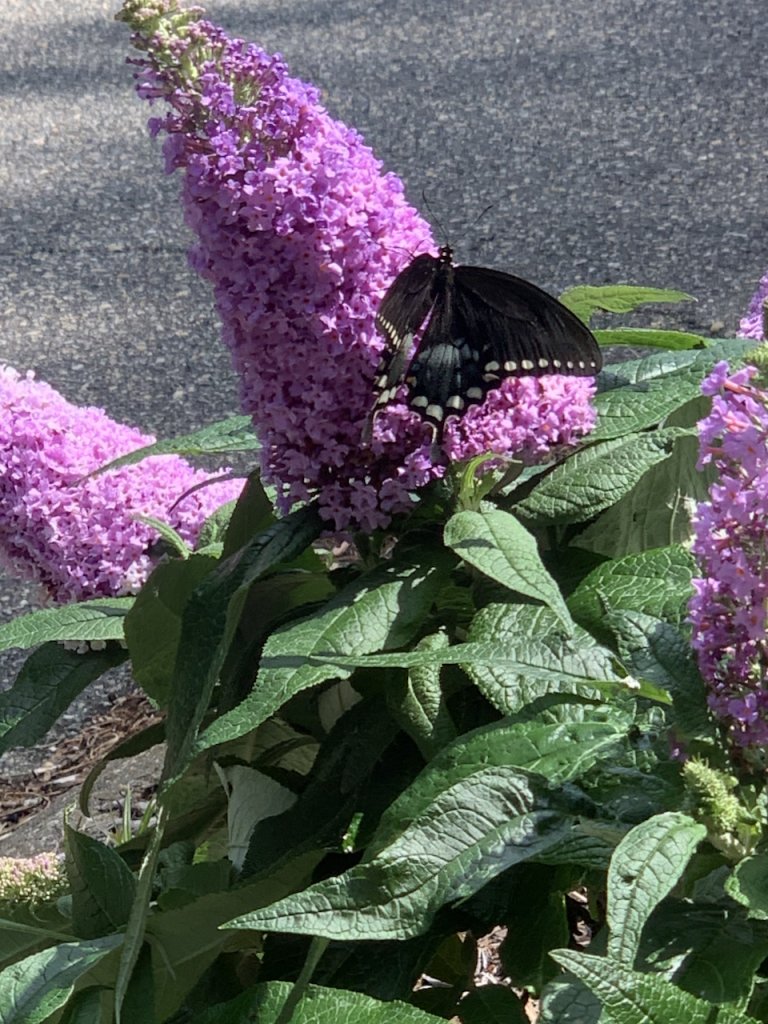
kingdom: Animalia
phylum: Arthropoda
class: Insecta
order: Lepidoptera
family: Papilionidae
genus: Pterourus
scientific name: Pterourus troilus
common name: Spicebush Swallowtail
